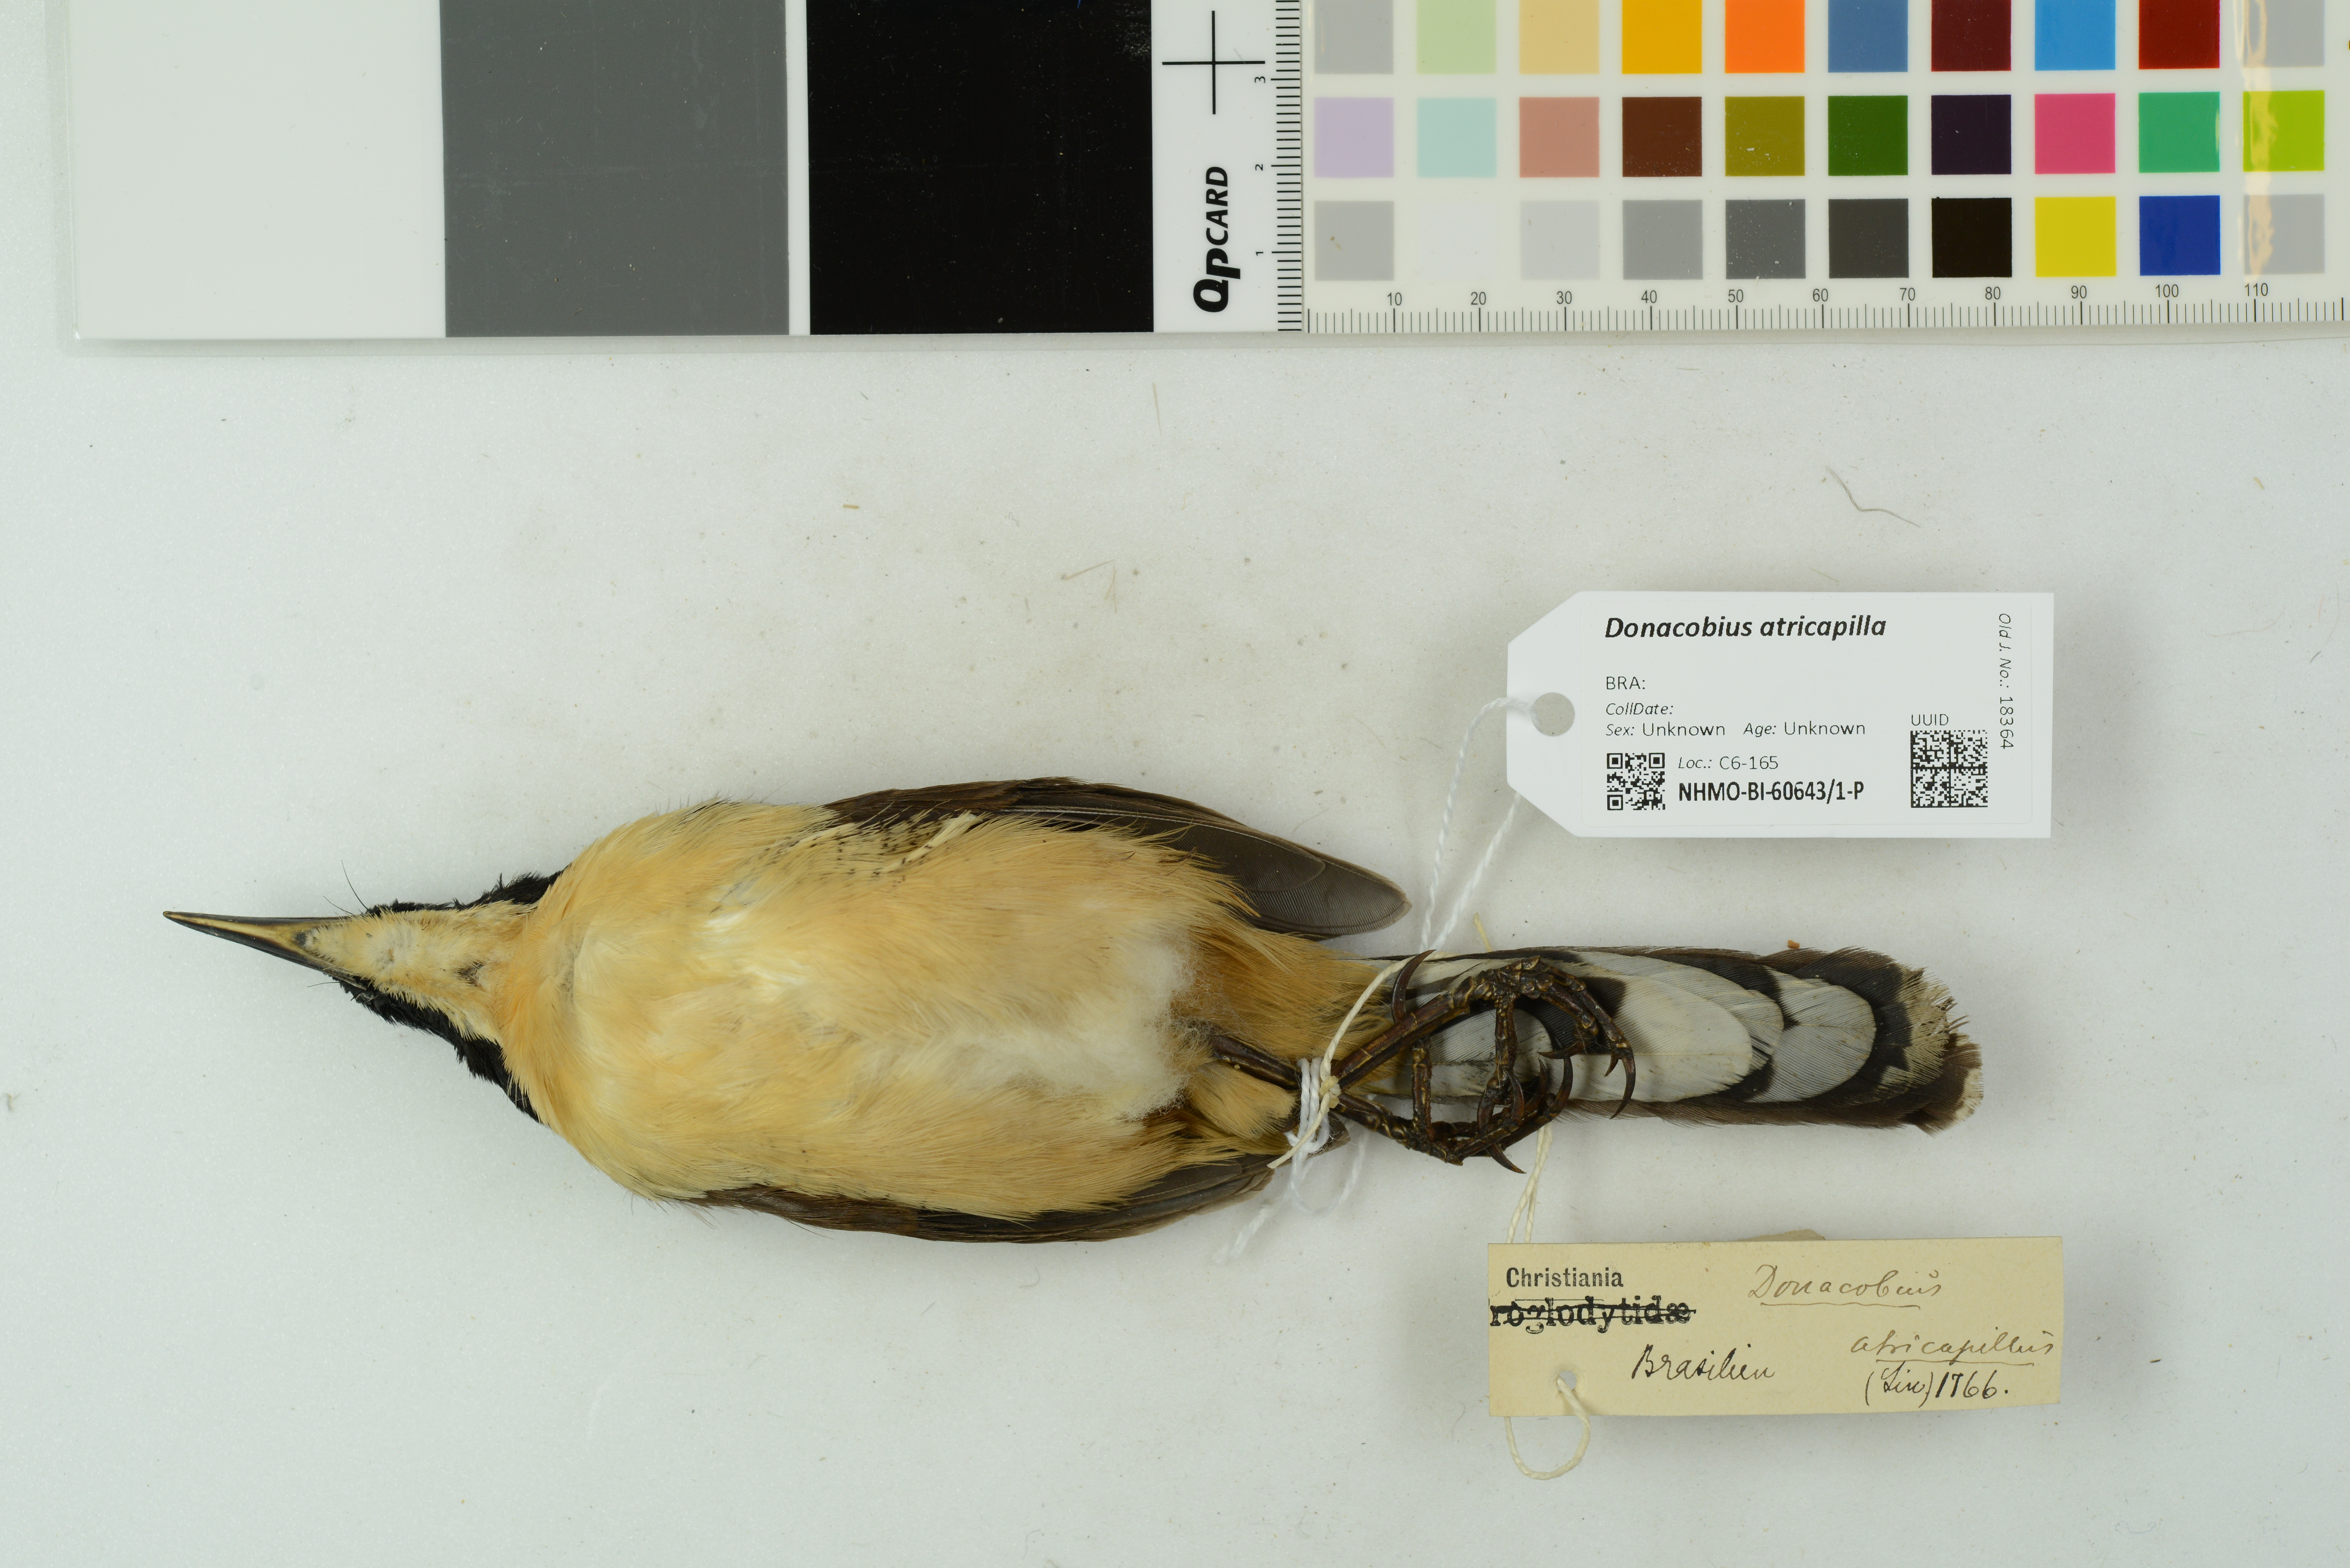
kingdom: Animalia
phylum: Chordata
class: Aves
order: Passeriformes
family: Donacobiidae
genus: Donacobius
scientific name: Donacobius atricapilla
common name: Black-capped donacobius
